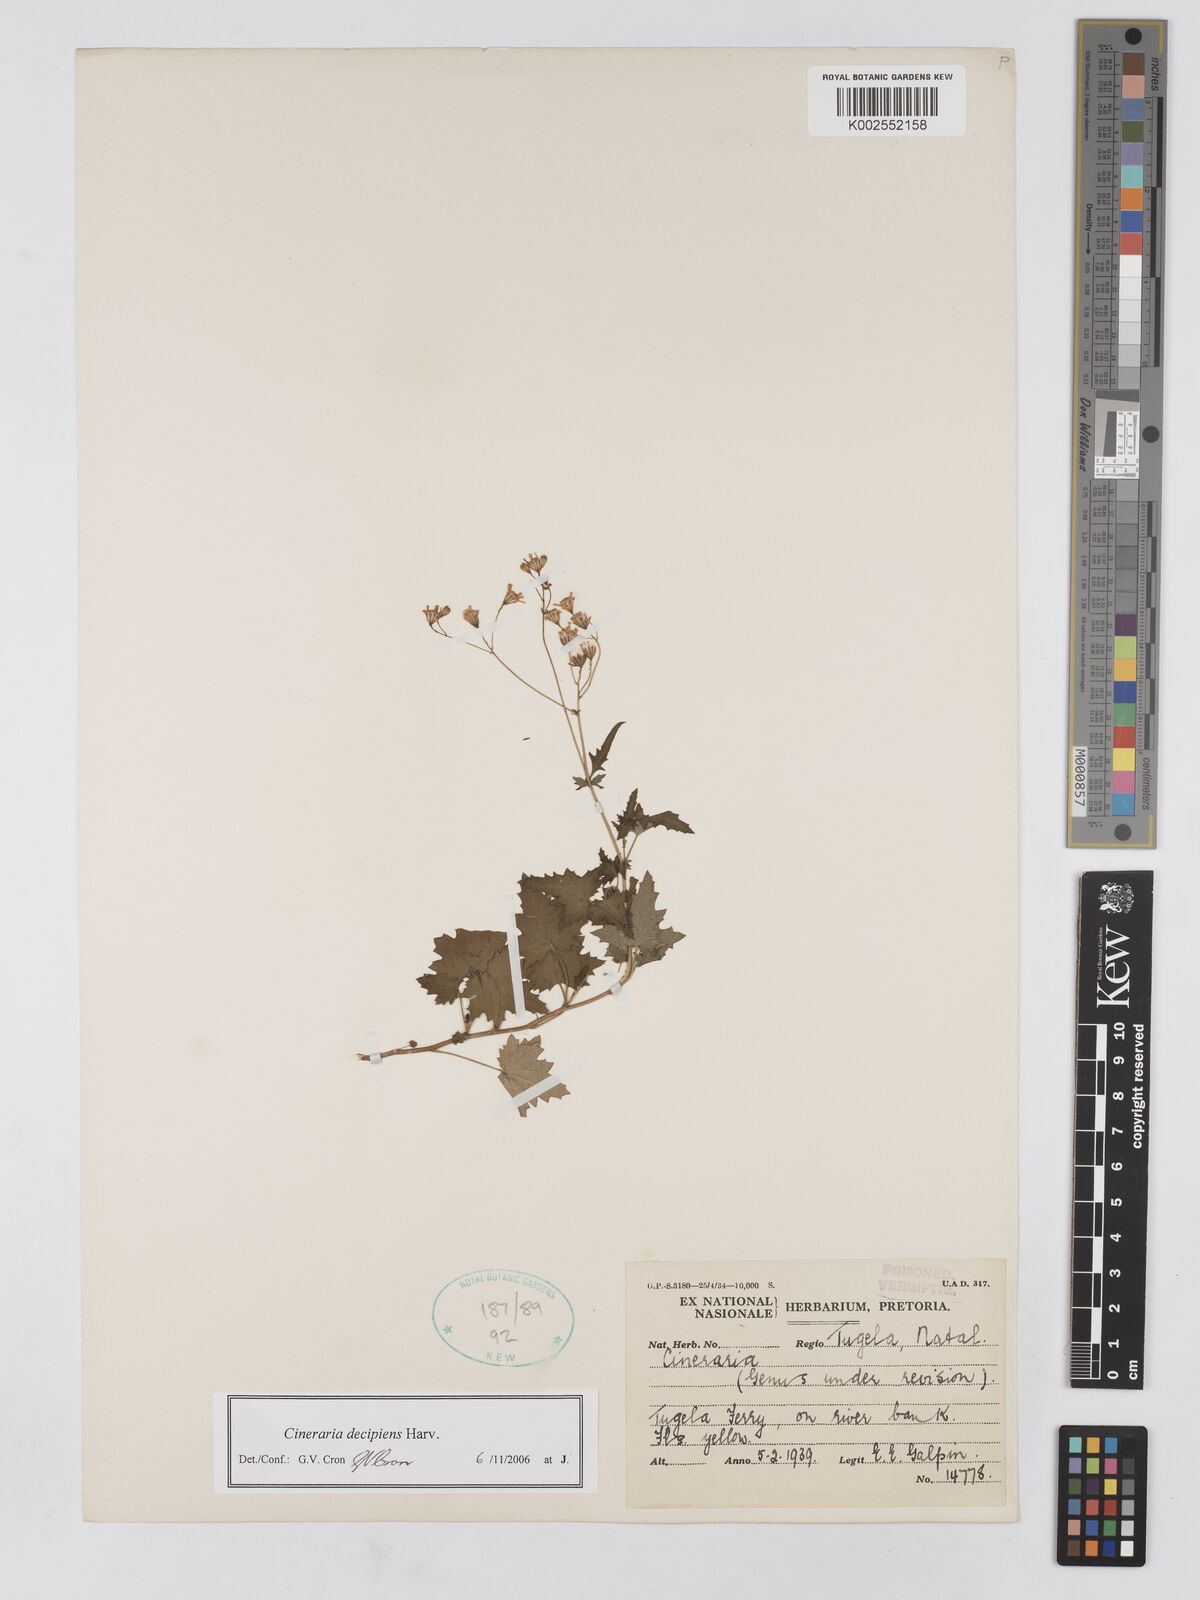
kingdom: Plantae
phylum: Tracheophyta
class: Magnoliopsida
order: Asterales
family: Asteraceae
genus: Cineraria
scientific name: Cineraria decipiens
